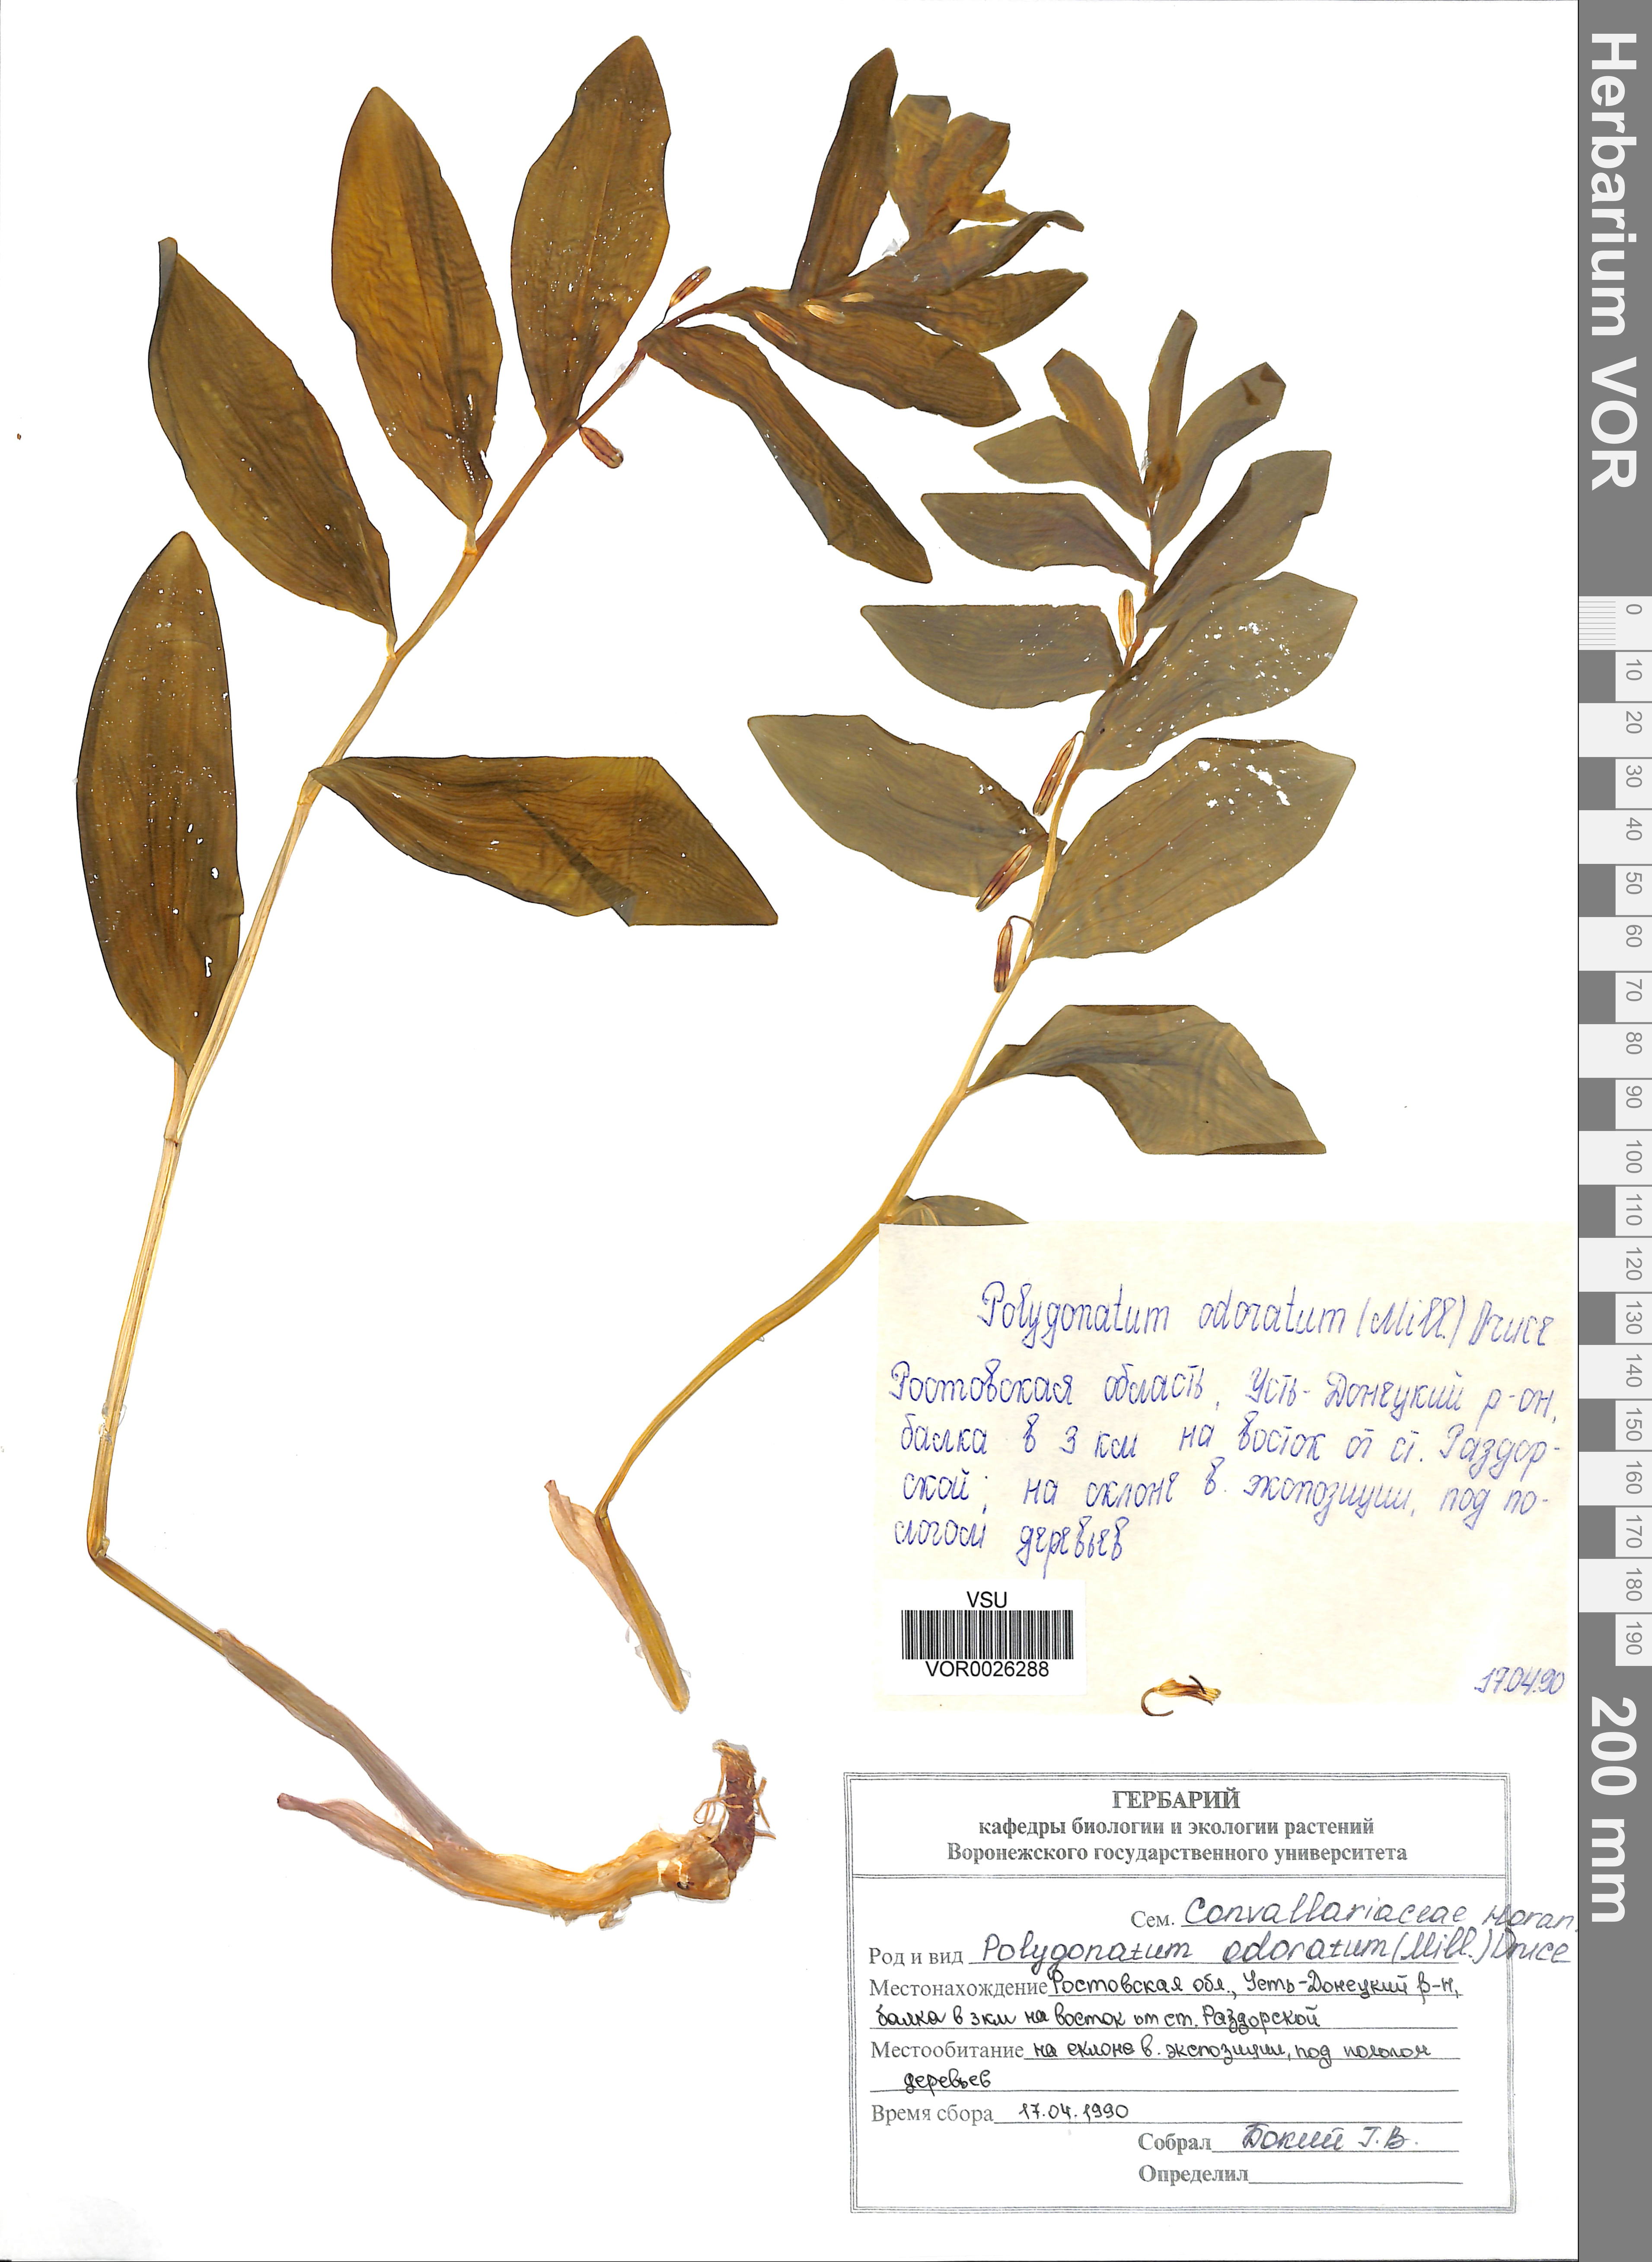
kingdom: Plantae
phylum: Tracheophyta
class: Liliopsida
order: Asparagales
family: Asparagaceae
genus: Polygonatum
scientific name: Polygonatum odoratum
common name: Angular solomon's-seal
